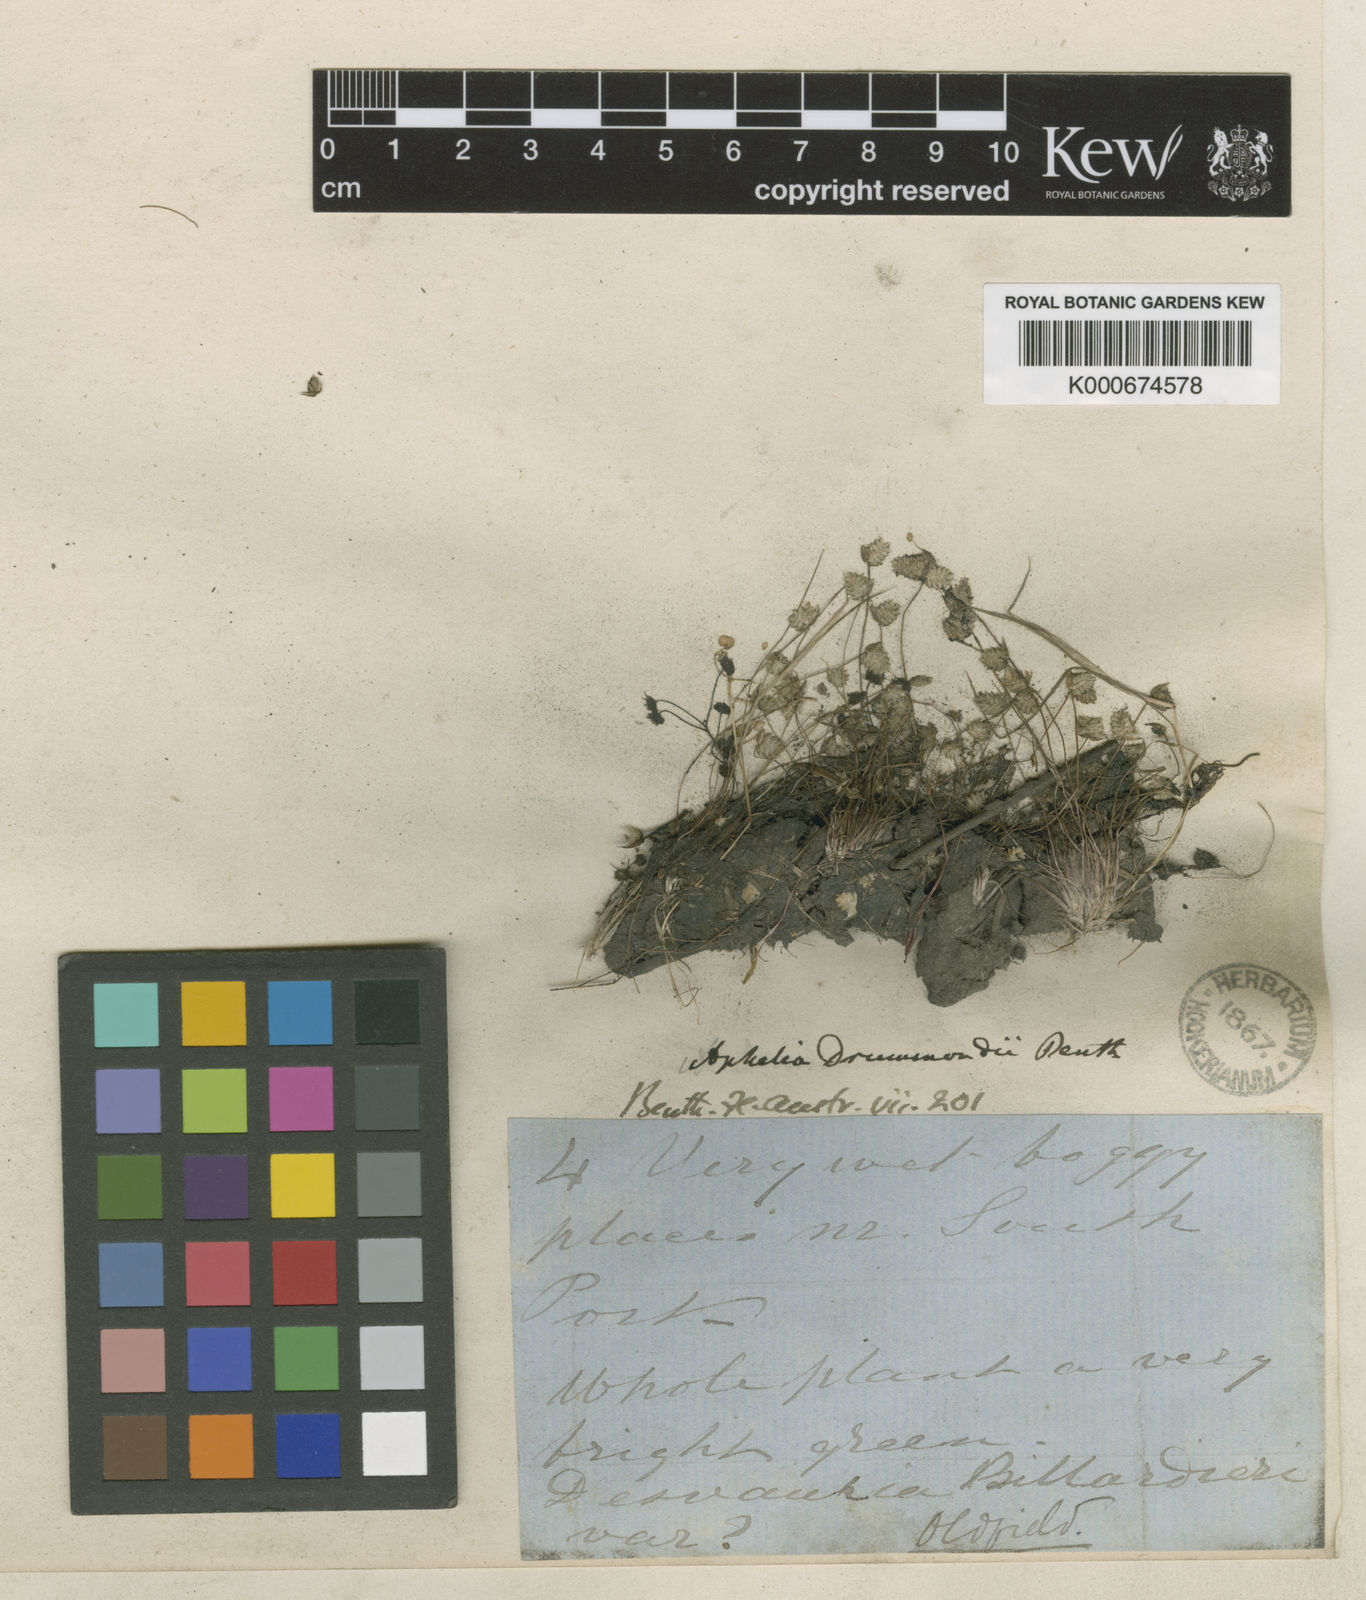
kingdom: Plantae
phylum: Tracheophyta
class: Liliopsida
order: Poales
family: Restionaceae
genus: Aphelia
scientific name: Aphelia drummondii
